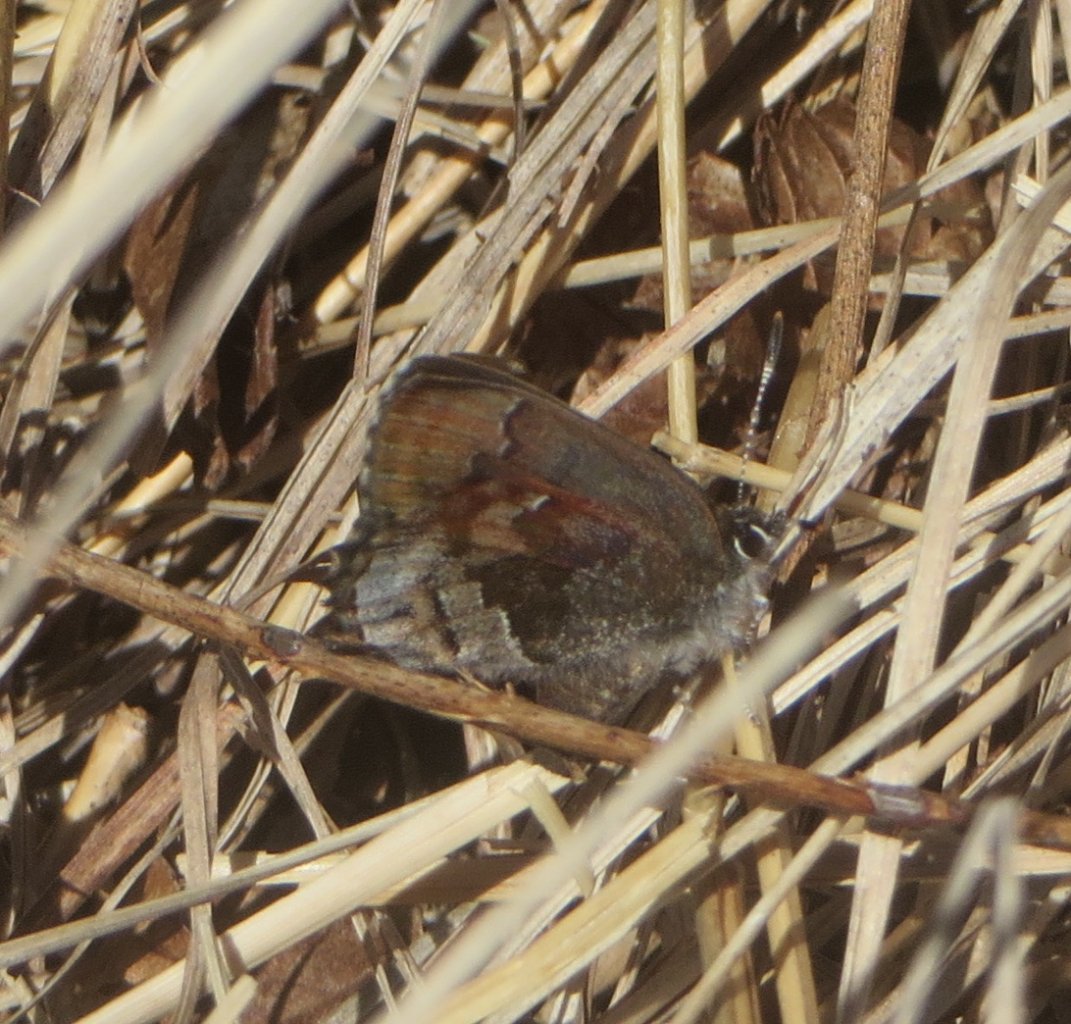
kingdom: Animalia
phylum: Arthropoda
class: Insecta
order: Lepidoptera
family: Lycaenidae
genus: Thecla
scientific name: Thecla irus
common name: Frosted Elfin
